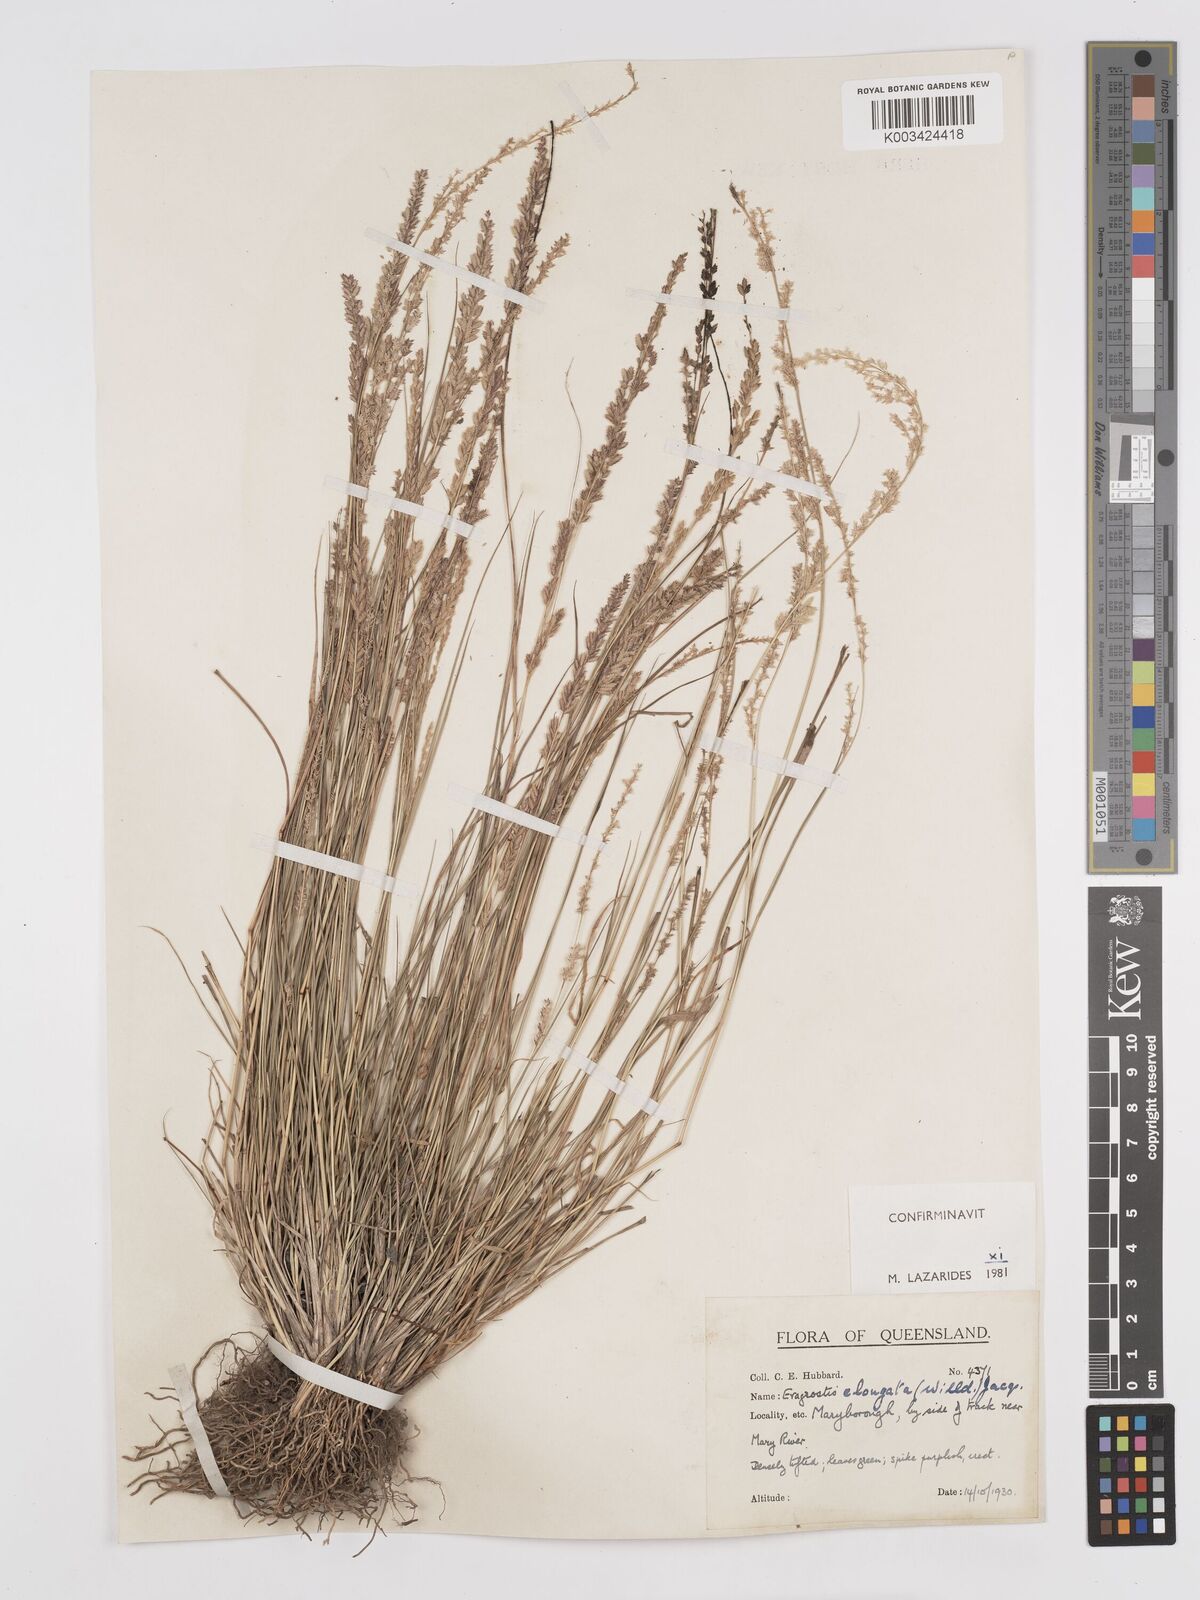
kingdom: Plantae
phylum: Tracheophyta
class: Liliopsida
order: Poales
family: Poaceae
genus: Eragrostis
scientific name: Eragrostis elongata
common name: Long lovegrass
